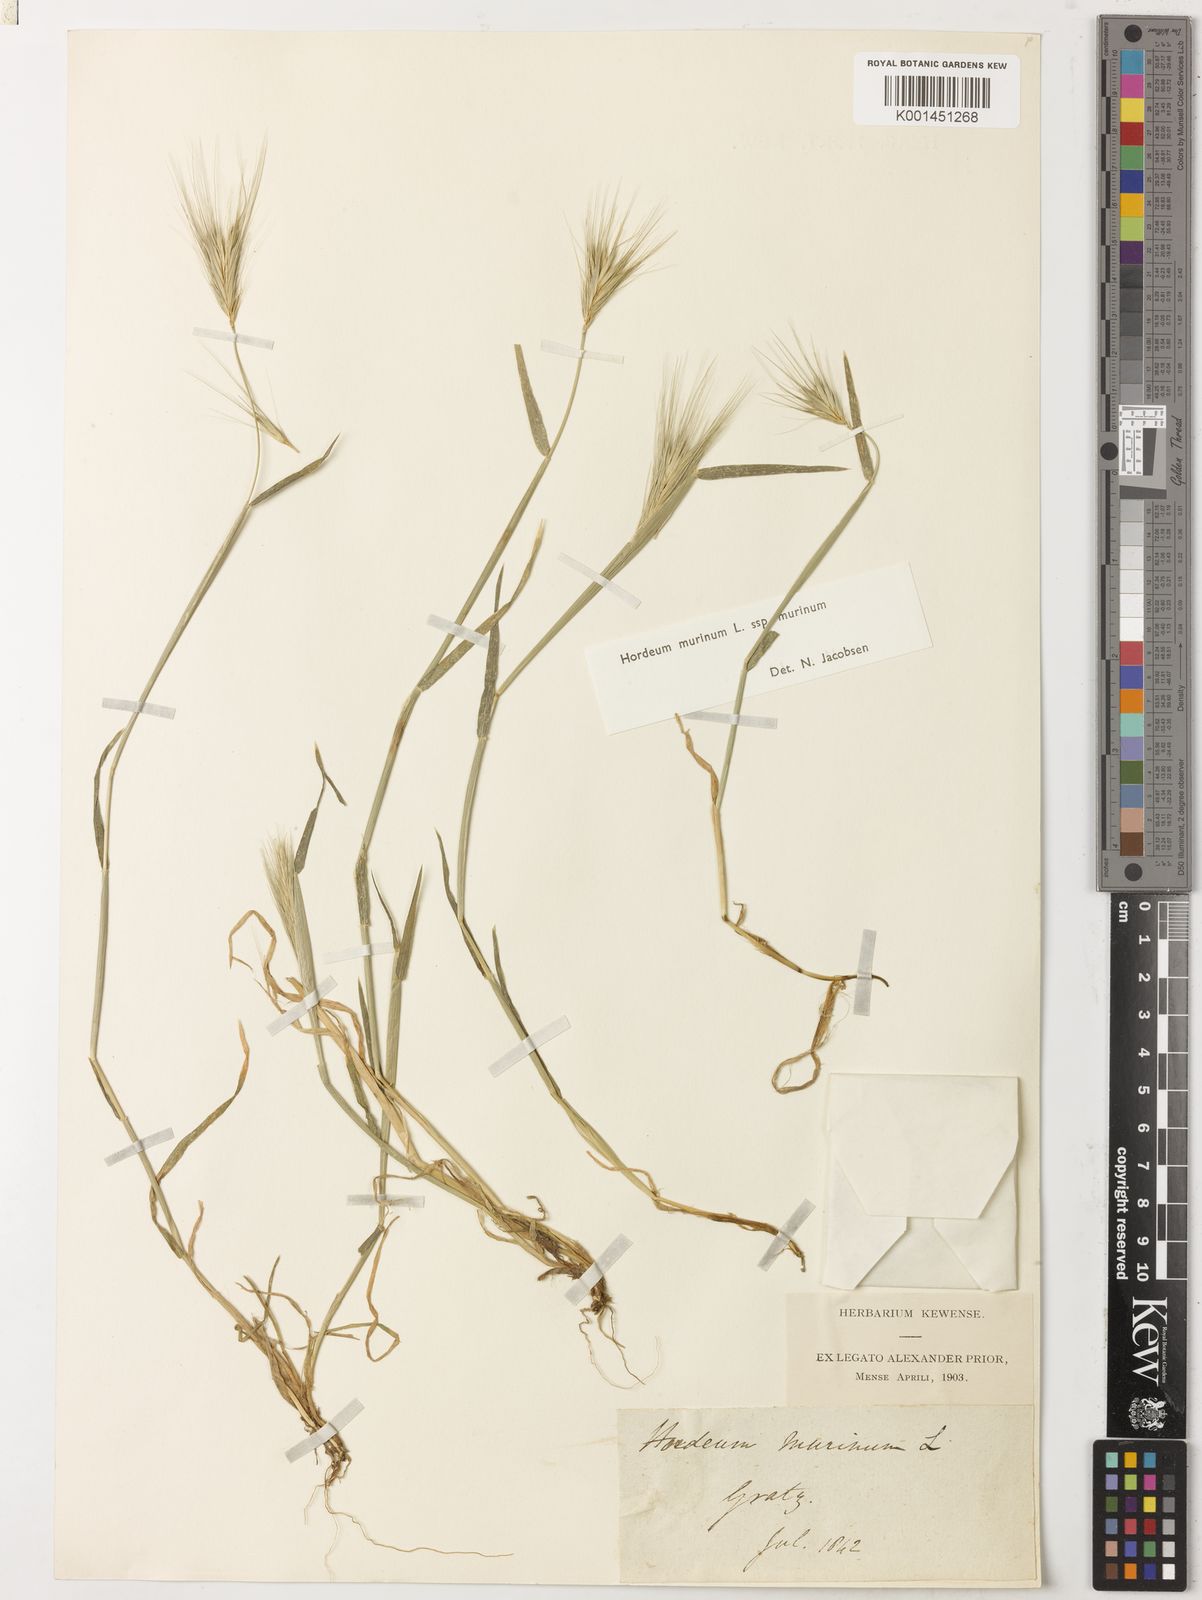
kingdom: Plantae
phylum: Tracheophyta
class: Liliopsida
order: Poales
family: Poaceae
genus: Hordeum
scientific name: Hordeum murinum
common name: Wall barley
